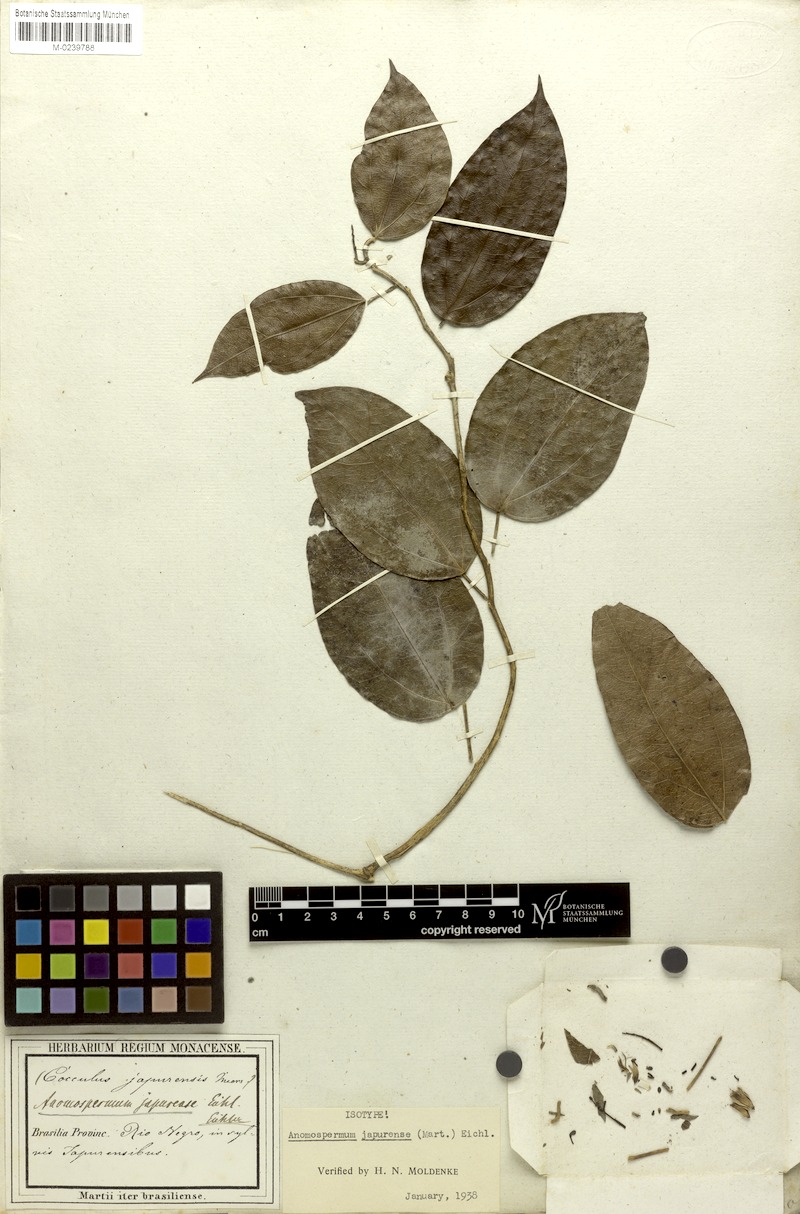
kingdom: Plantae
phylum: Tracheophyta
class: Magnoliopsida
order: Ranunculales
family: Menispermaceae
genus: Borismene
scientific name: Borismene japurensis
